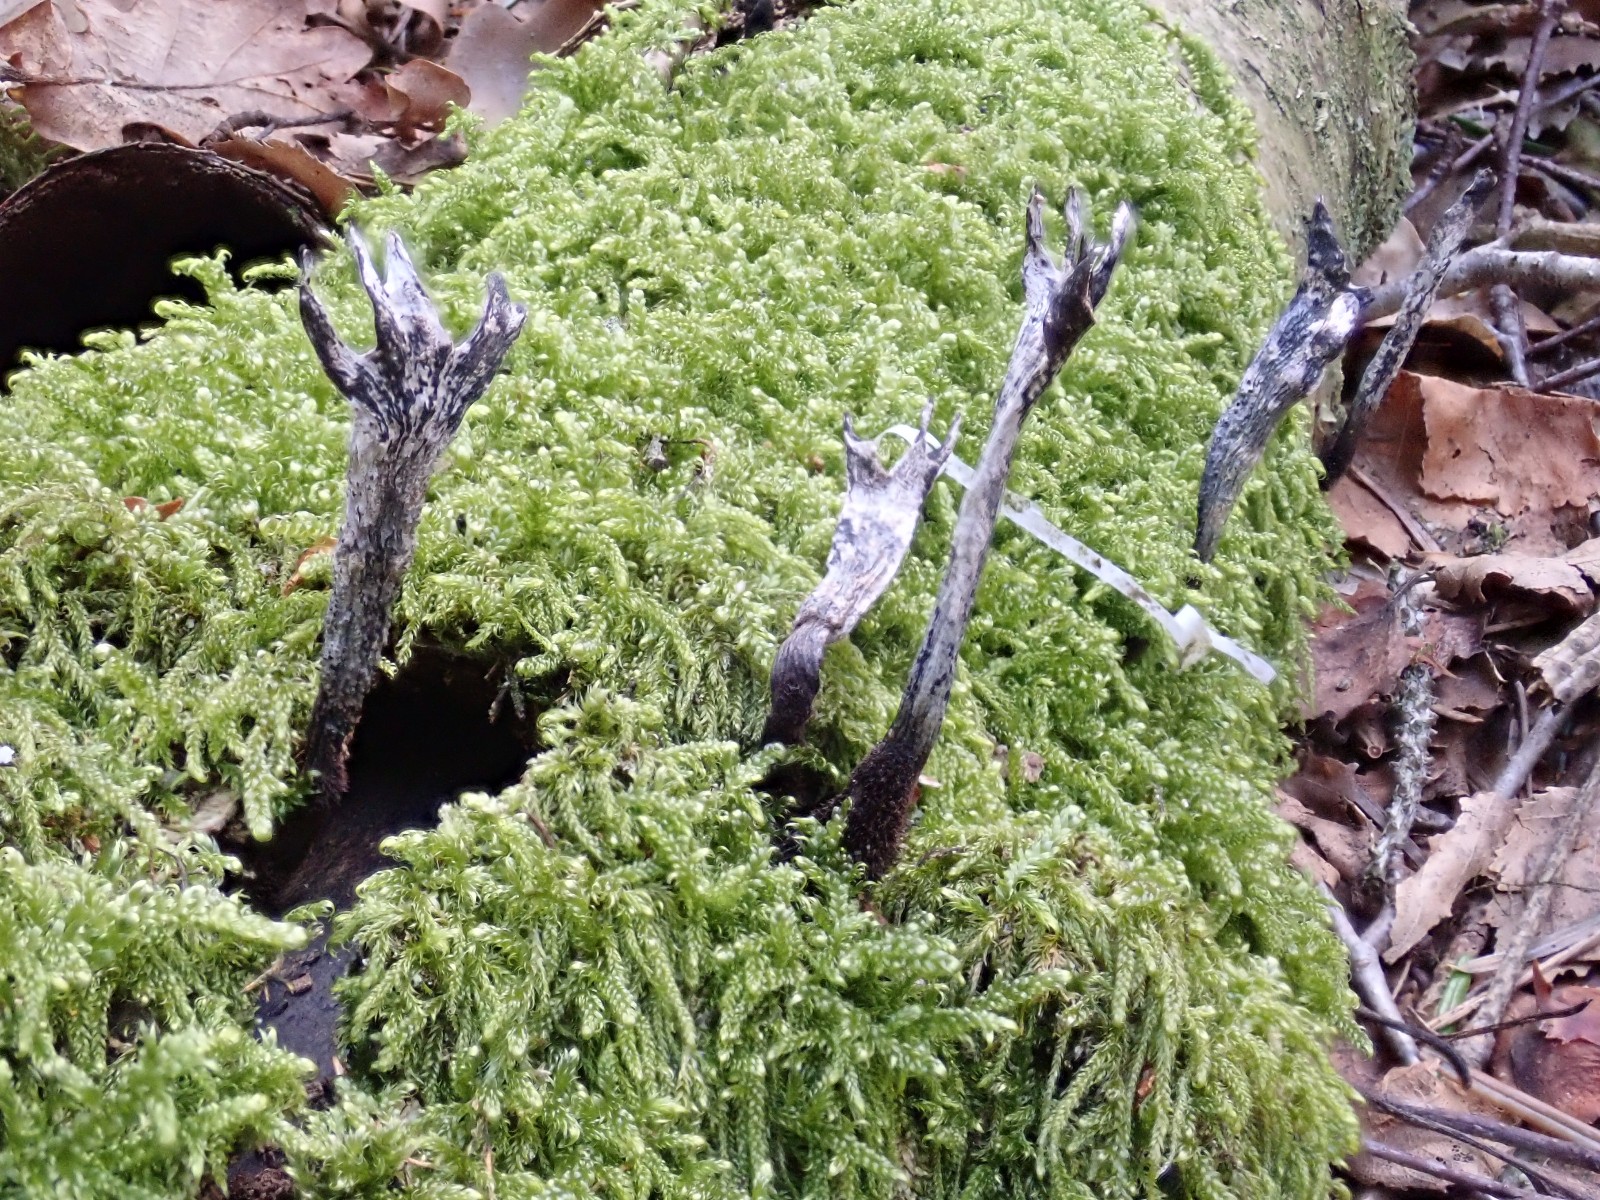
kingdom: Fungi
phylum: Ascomycota
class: Sordariomycetes
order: Xylariales
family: Xylariaceae
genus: Xylaria
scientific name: Xylaria hypoxylon
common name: grenet stødsvamp
